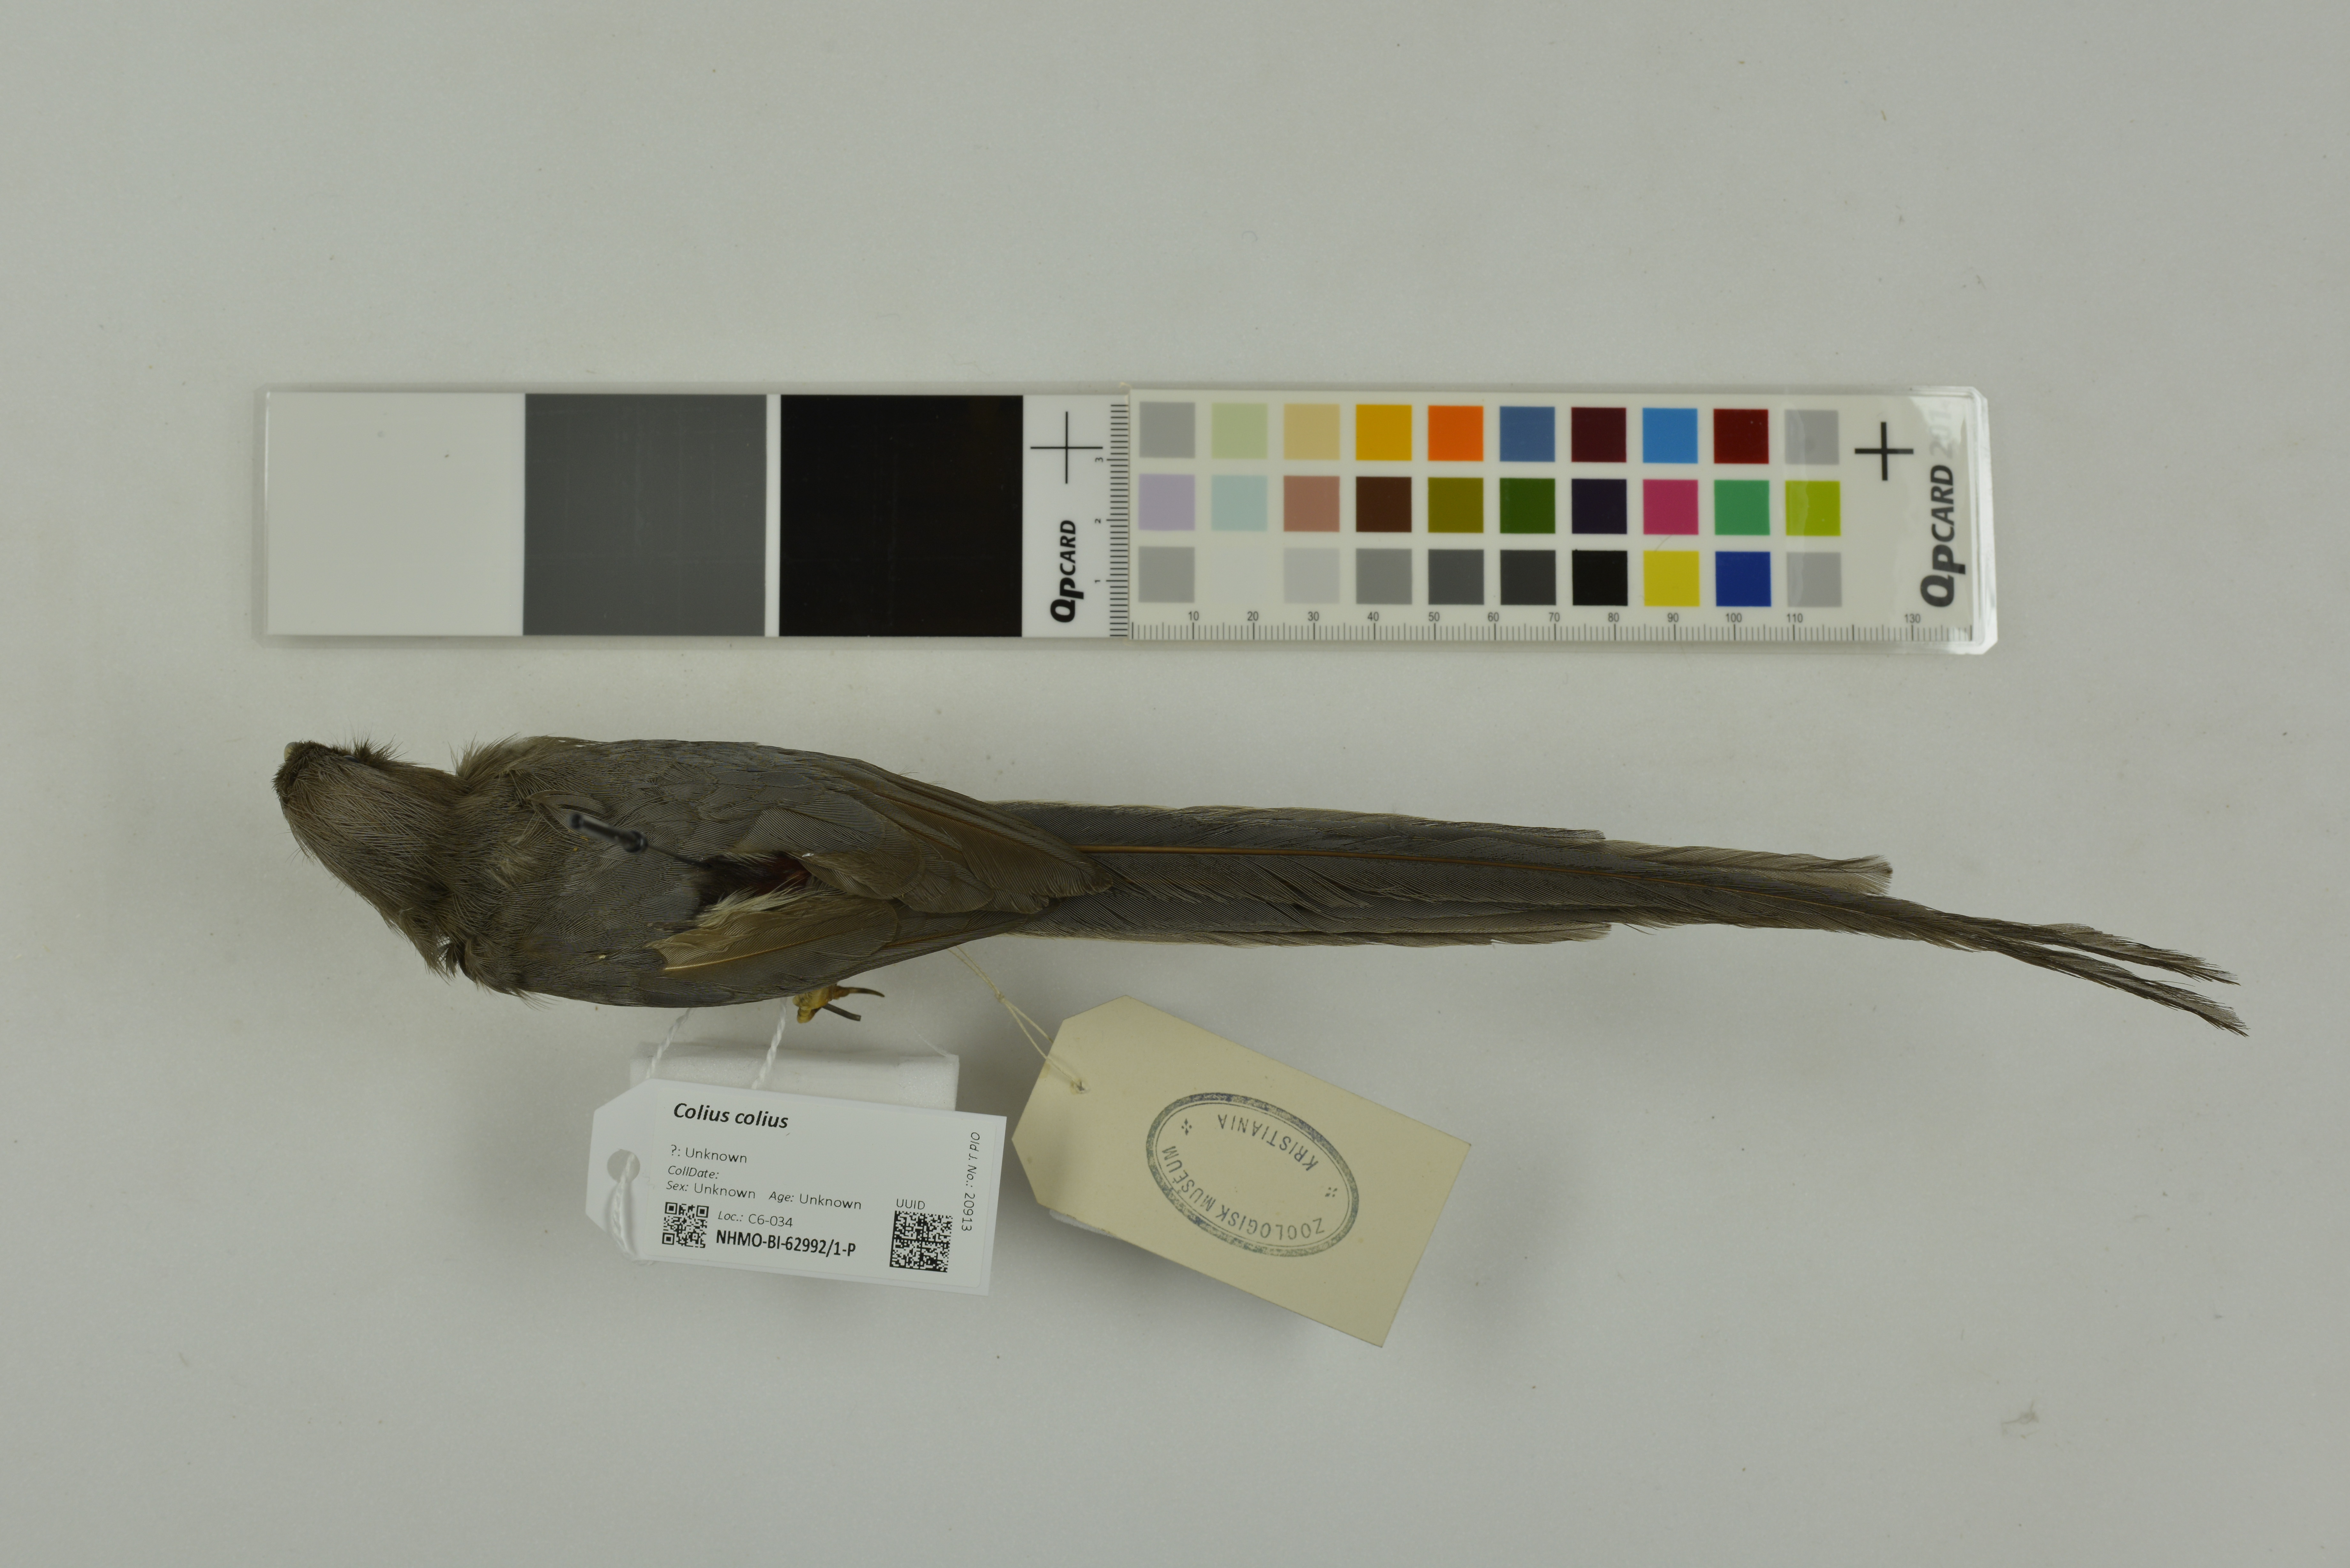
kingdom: Animalia
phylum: Chordata
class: Aves
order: Coliiformes
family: Coliidae
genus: Colius
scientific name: Colius colius
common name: White-backed mousebird
